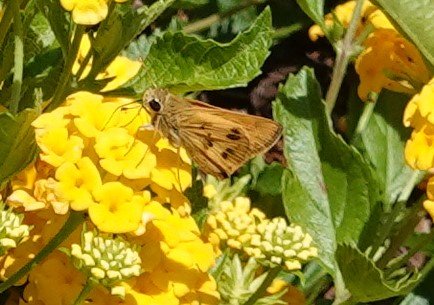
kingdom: Animalia
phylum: Arthropoda
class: Insecta
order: Lepidoptera
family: Hesperiidae
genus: Polites
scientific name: Polites vibex
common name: Whirlabout
